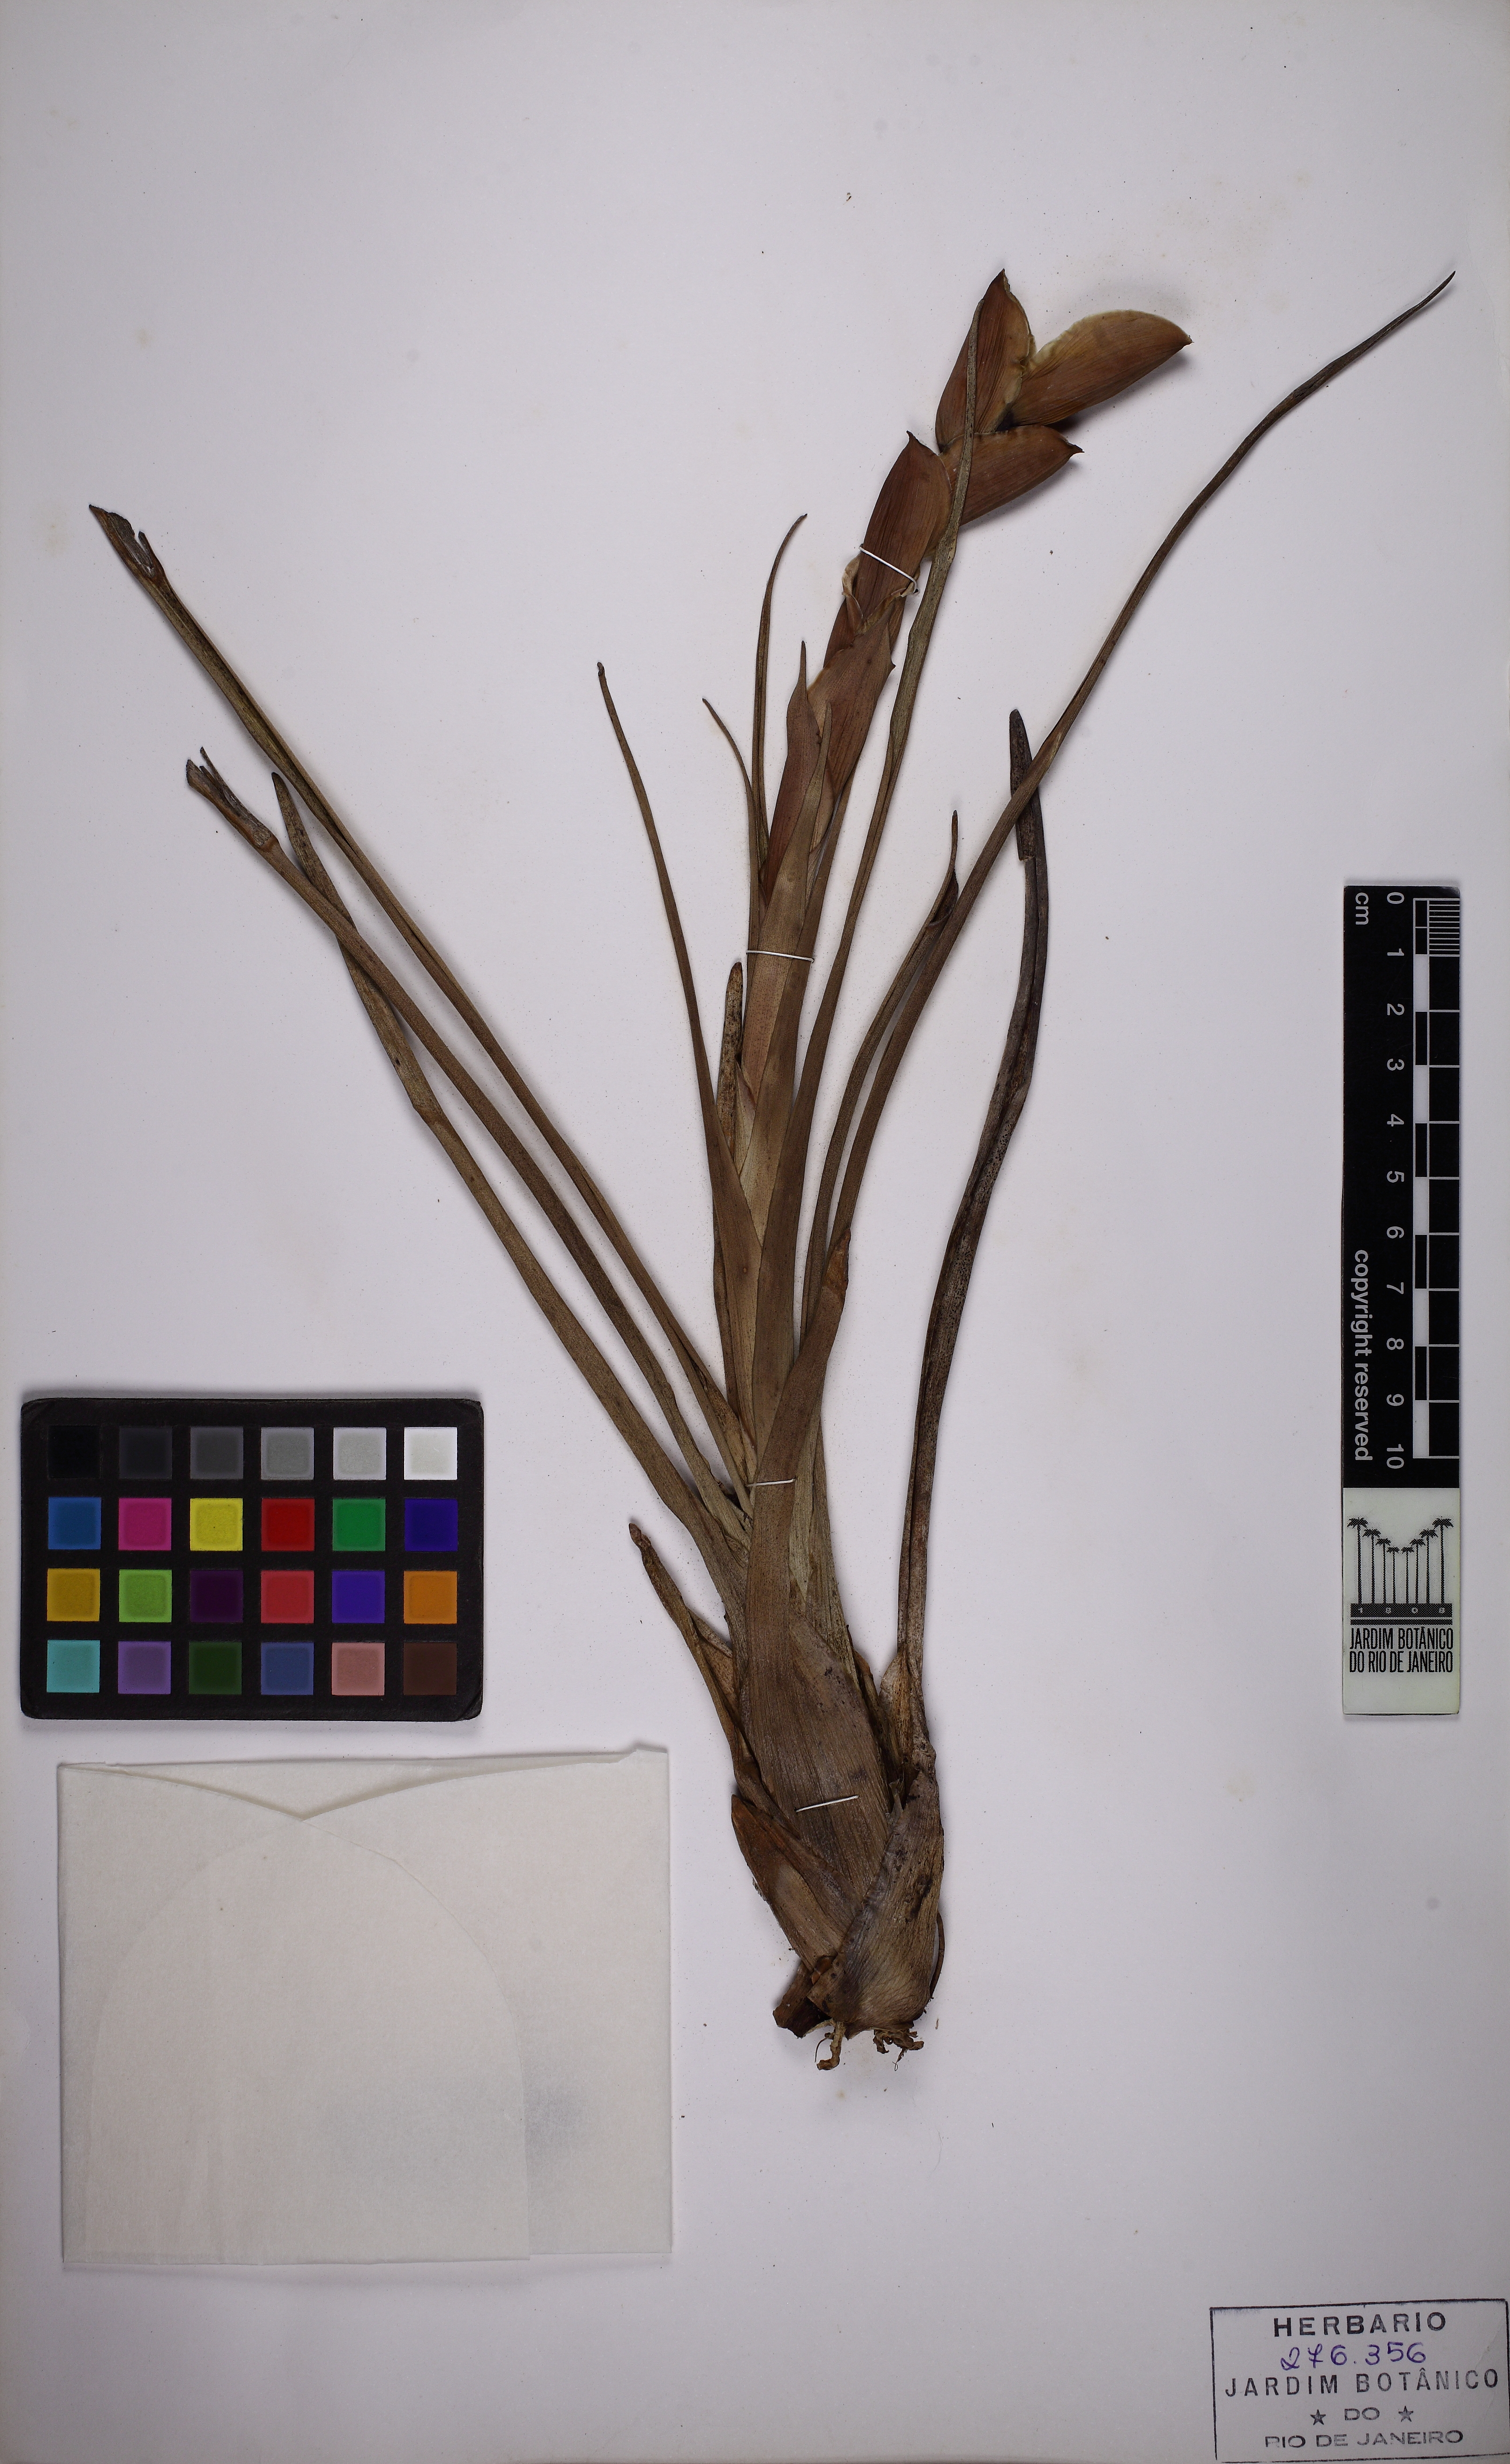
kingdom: Plantae
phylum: Tracheophyta
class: Liliopsida
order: Poales
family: Bromeliaceae
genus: Alcantarea
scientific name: Alcantarea farneyi
